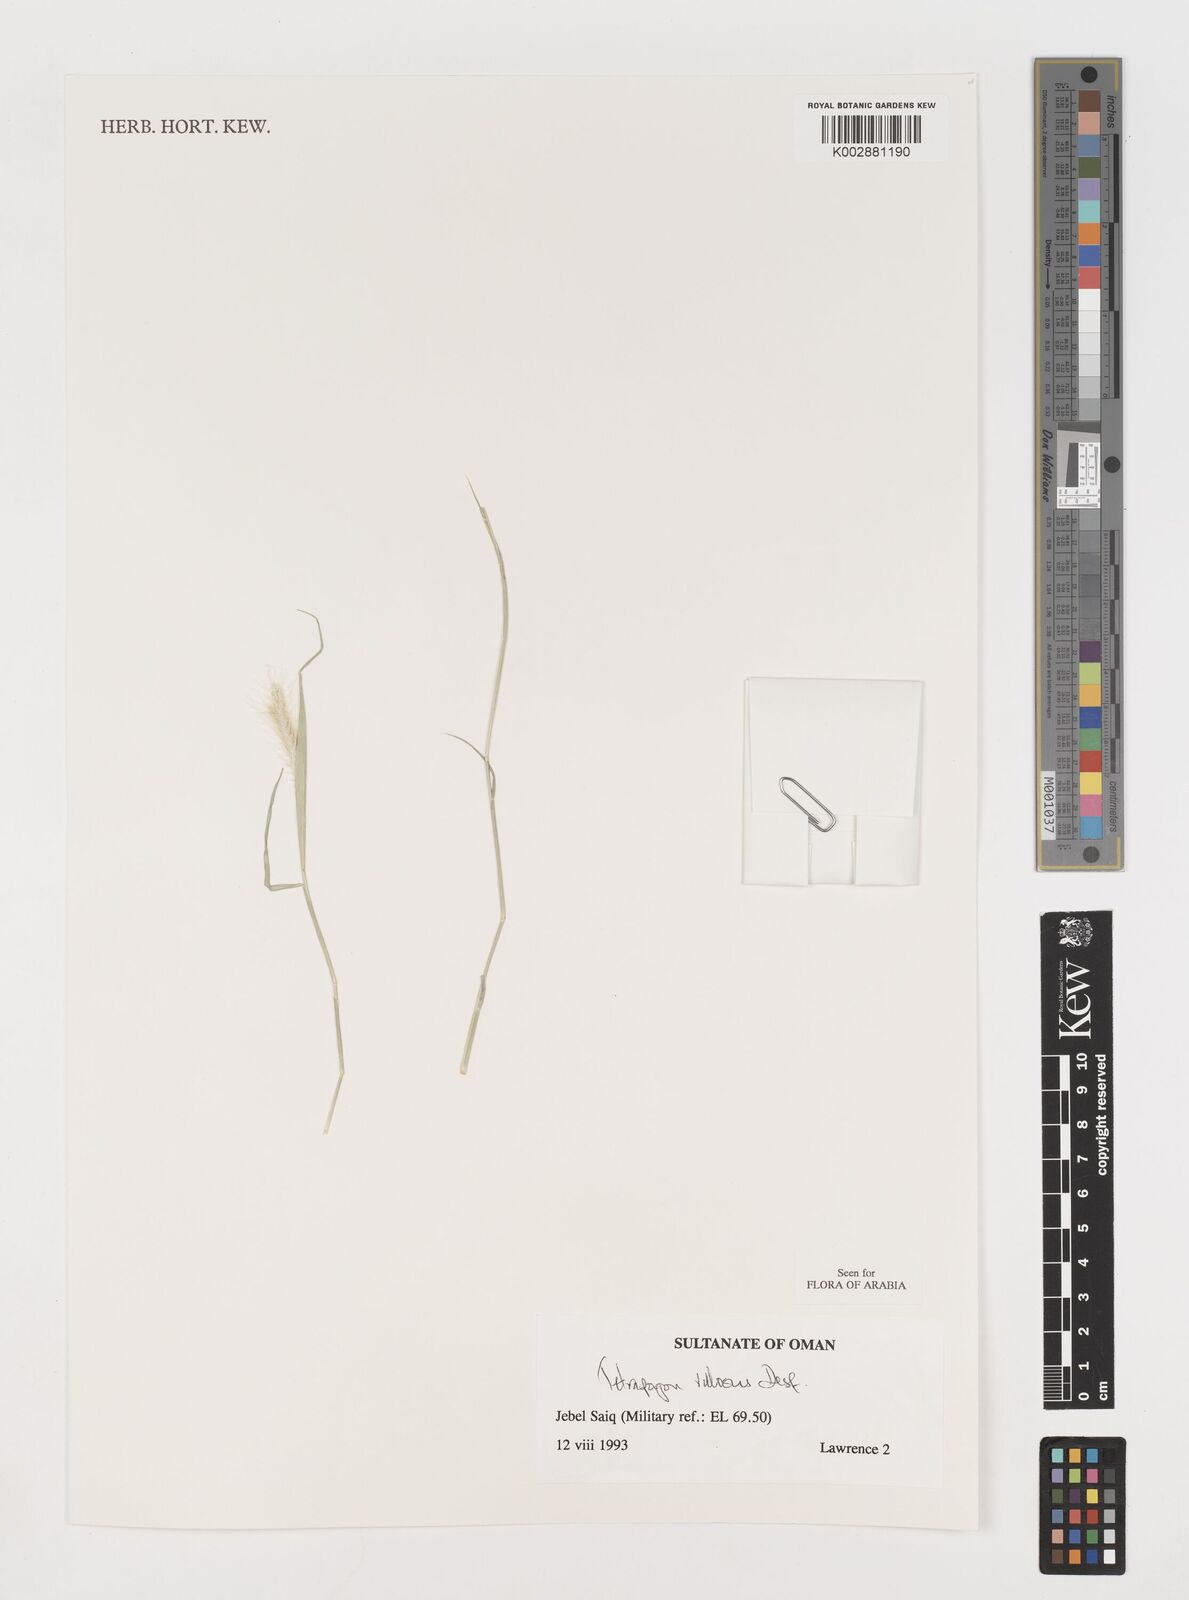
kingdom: Plantae
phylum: Tracheophyta
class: Liliopsida
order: Poales
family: Poaceae
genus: Tetrapogon
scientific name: Tetrapogon villosus
